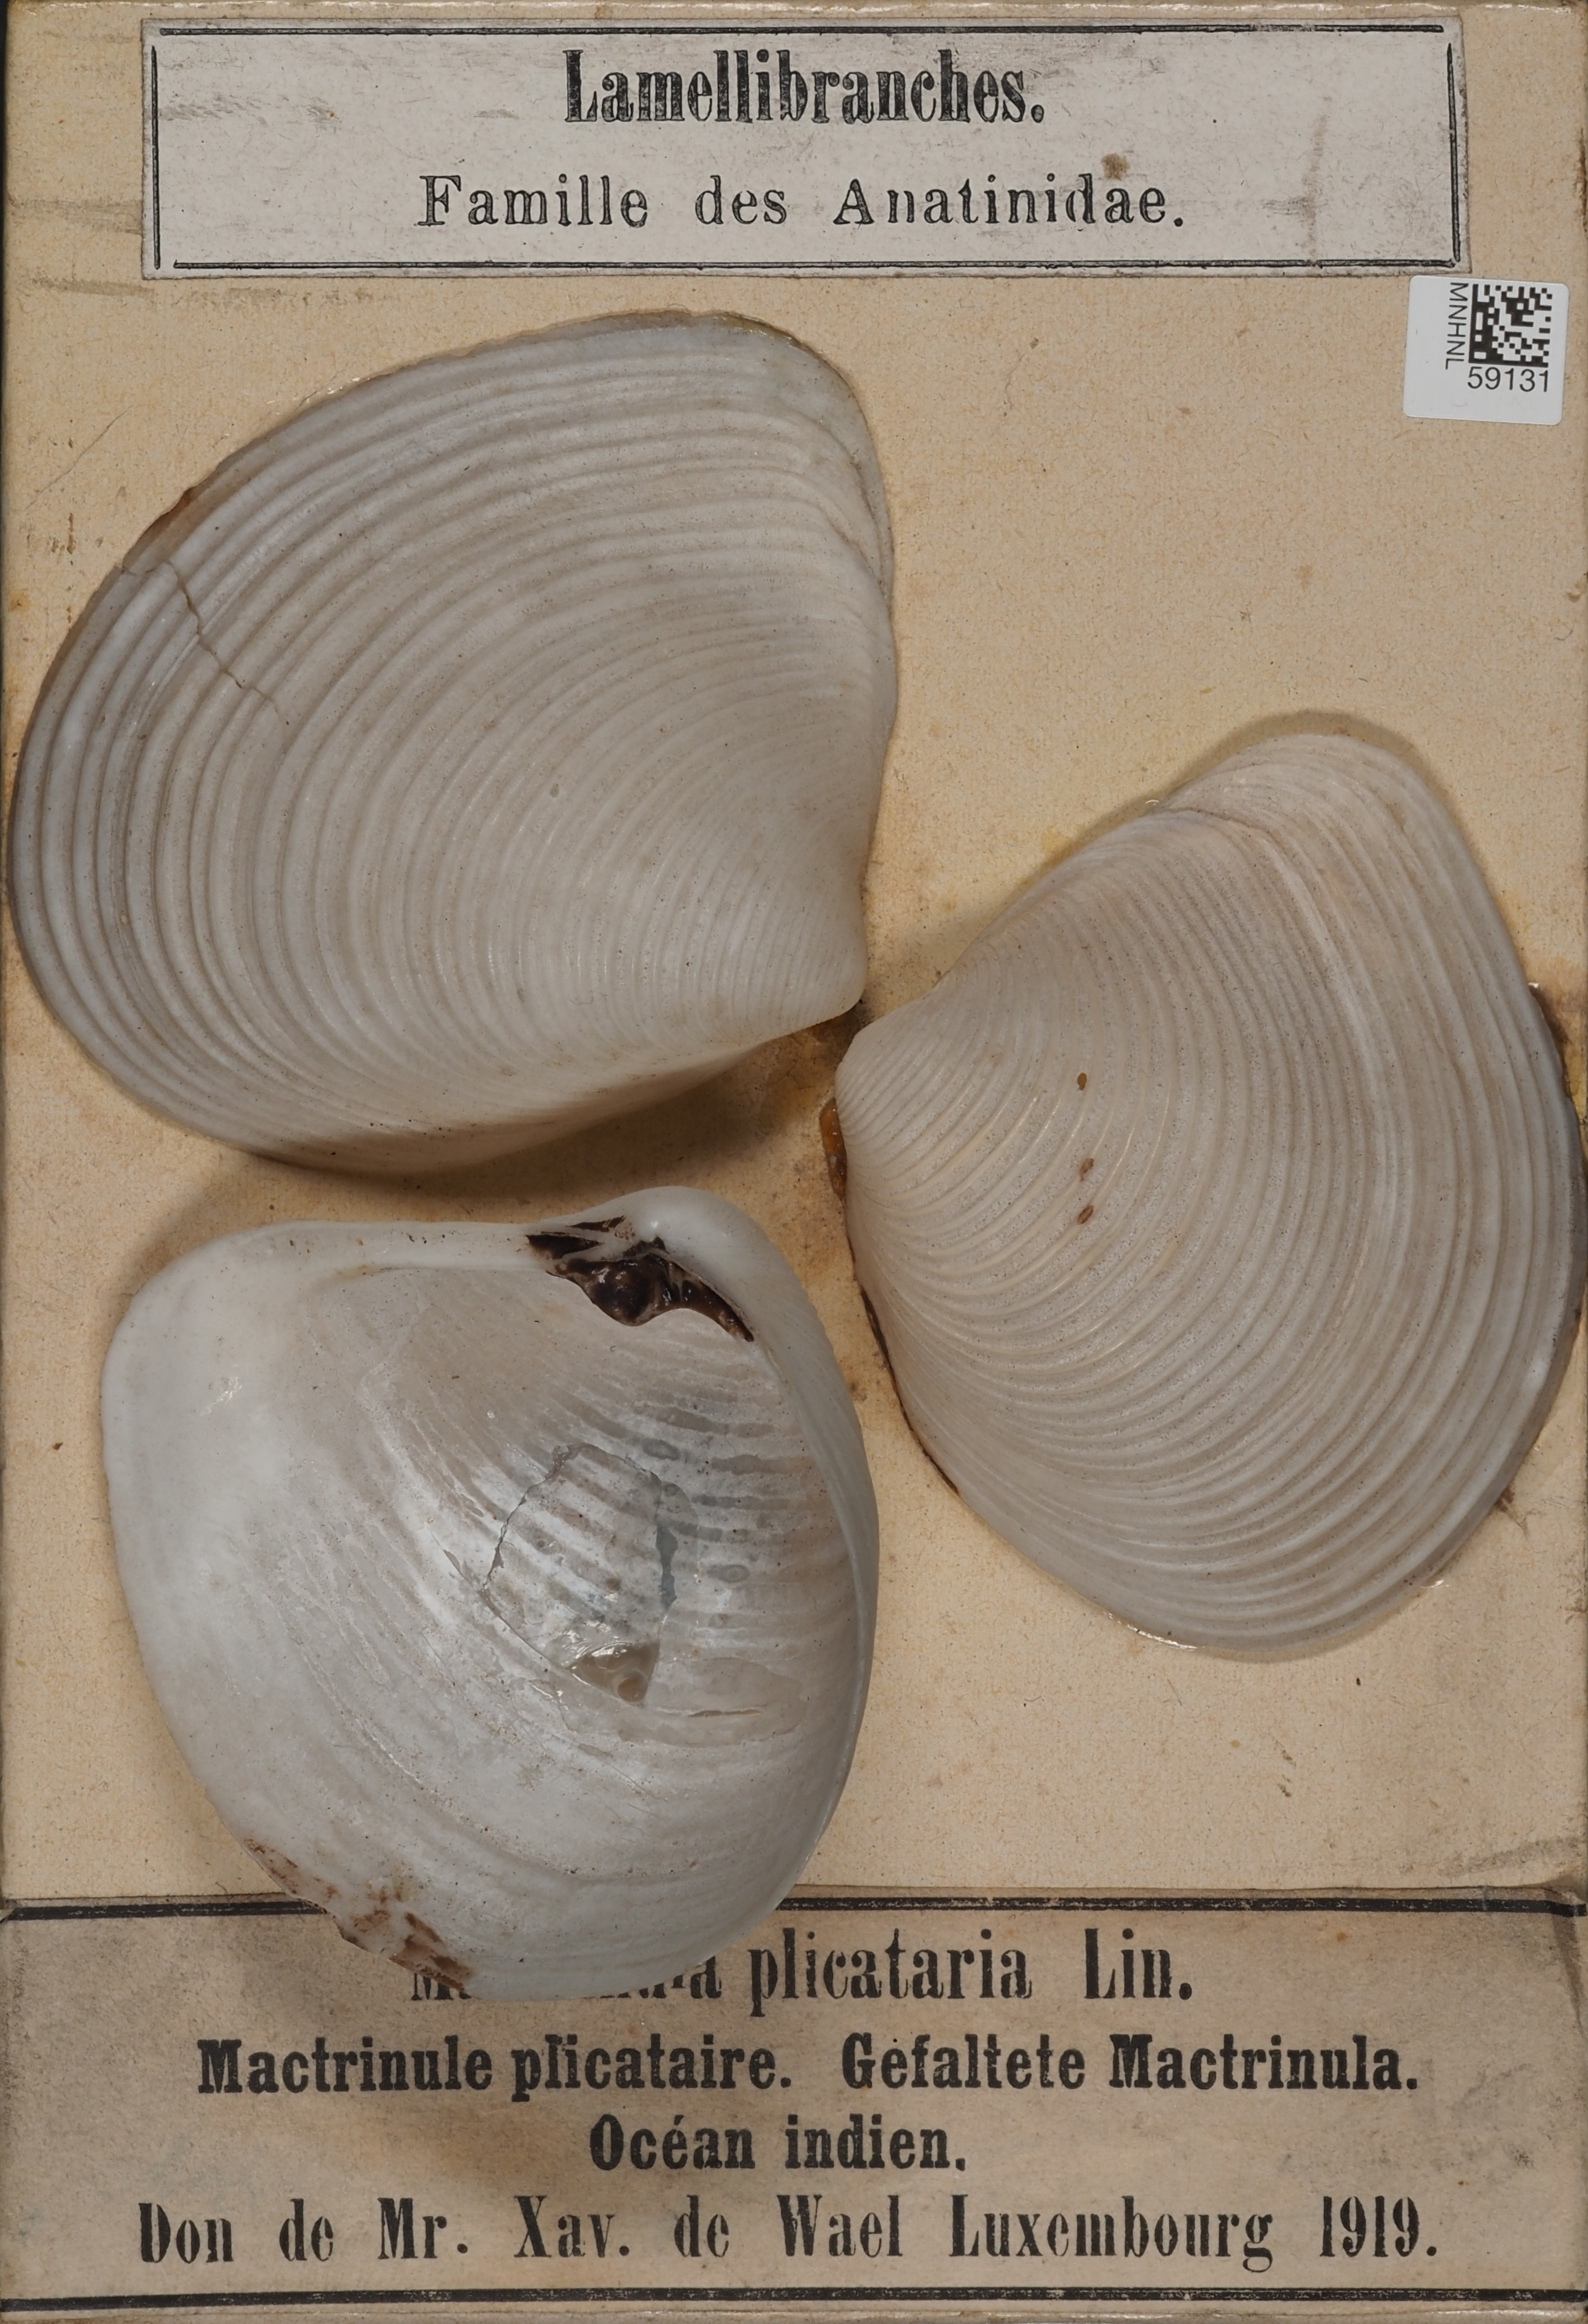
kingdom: Animalia
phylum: Mollusca
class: Bivalvia
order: Venerida
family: Mactridae
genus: Mactrinula
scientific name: Mactrinula plicataria
